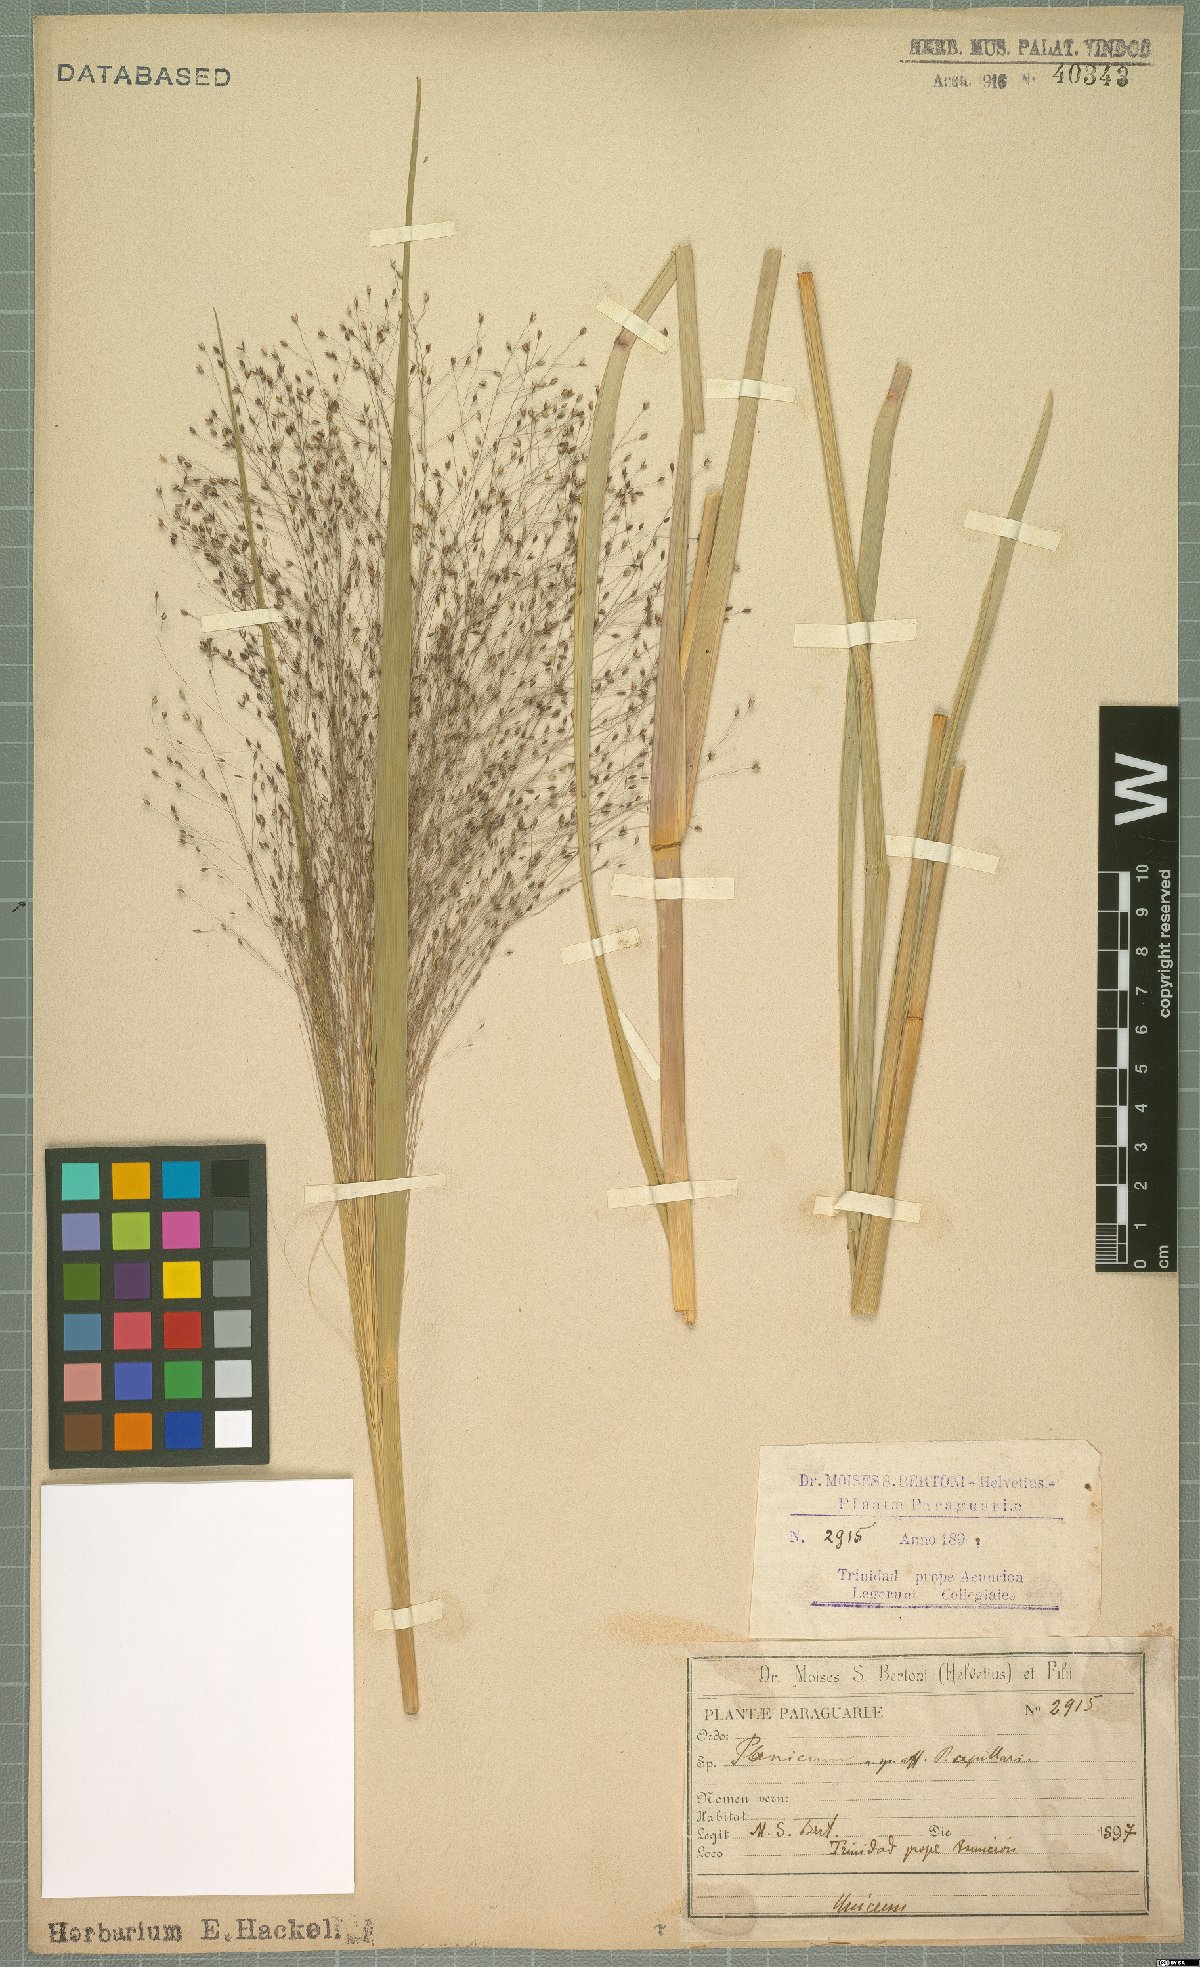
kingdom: Plantae
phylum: Tracheophyta
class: Liliopsida
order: Poales
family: Poaceae
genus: Panicum
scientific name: Panicum capillare
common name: Witch-grass
